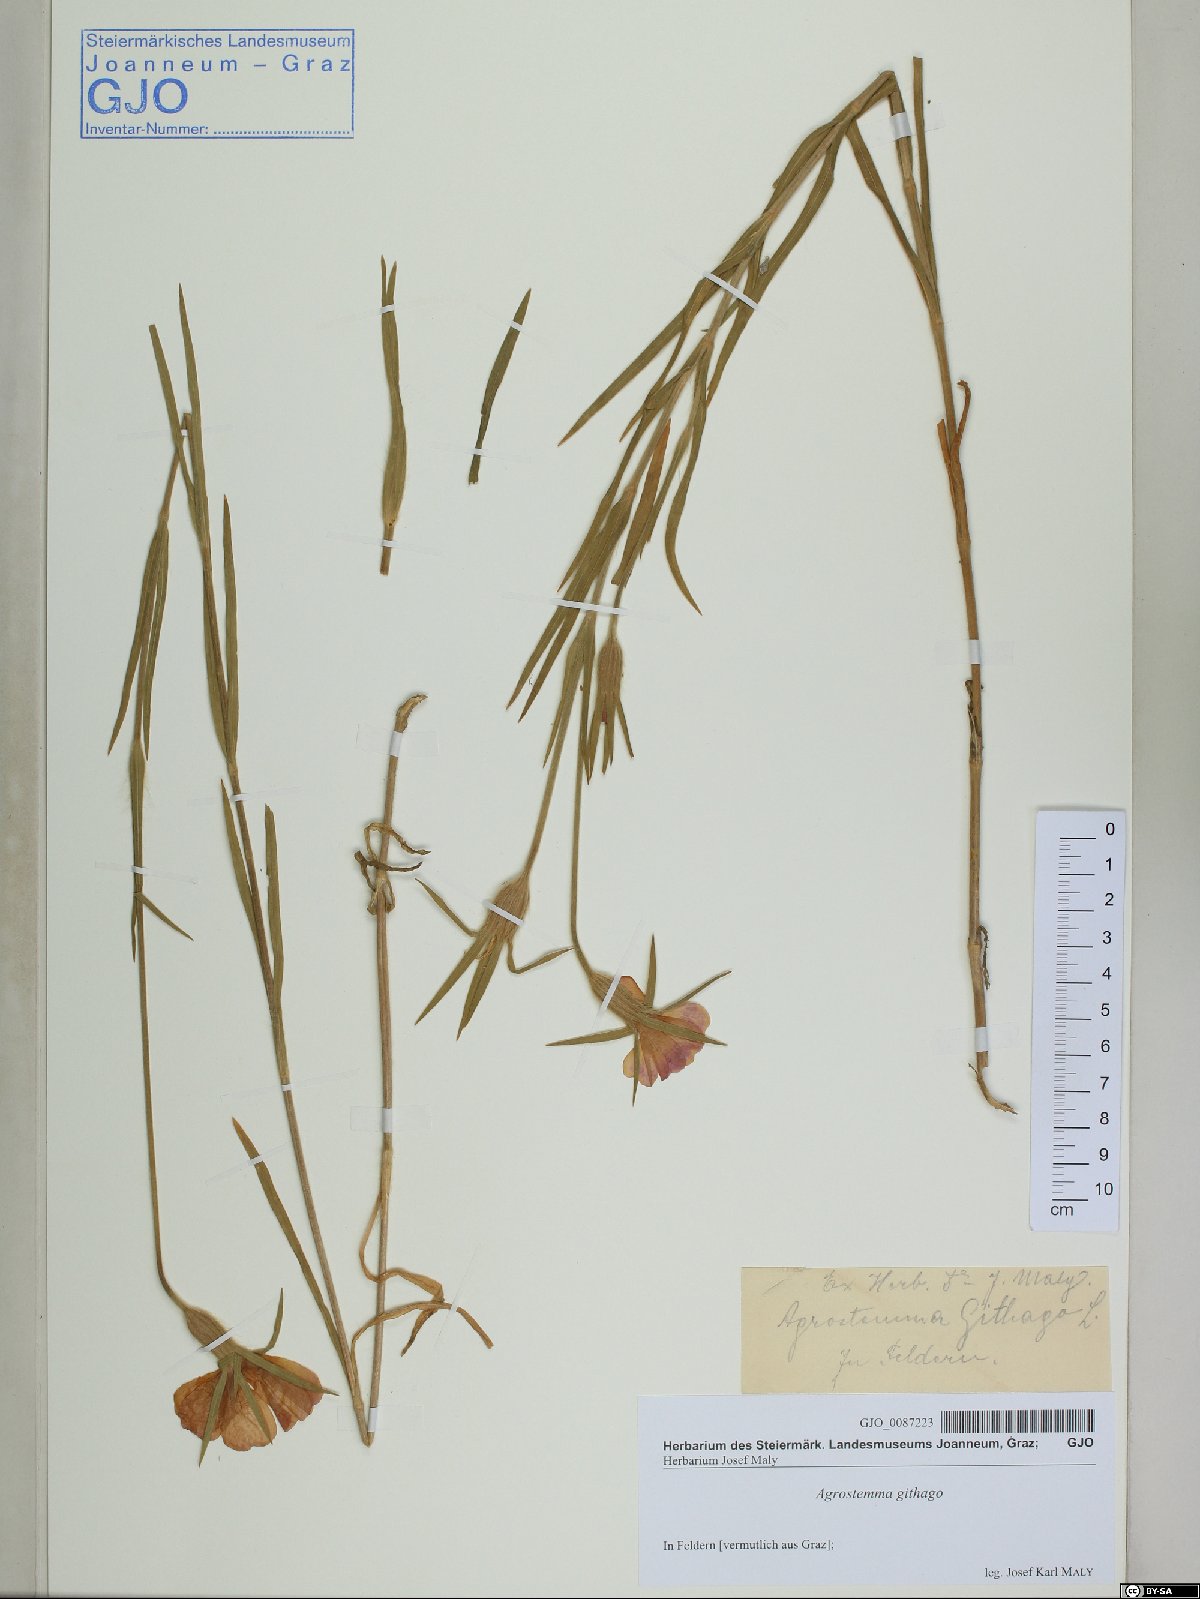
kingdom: Plantae
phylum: Tracheophyta
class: Magnoliopsida
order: Caryophyllales
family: Caryophyllaceae
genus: Agrostemma
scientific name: Agrostemma githago
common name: Common corncockle
